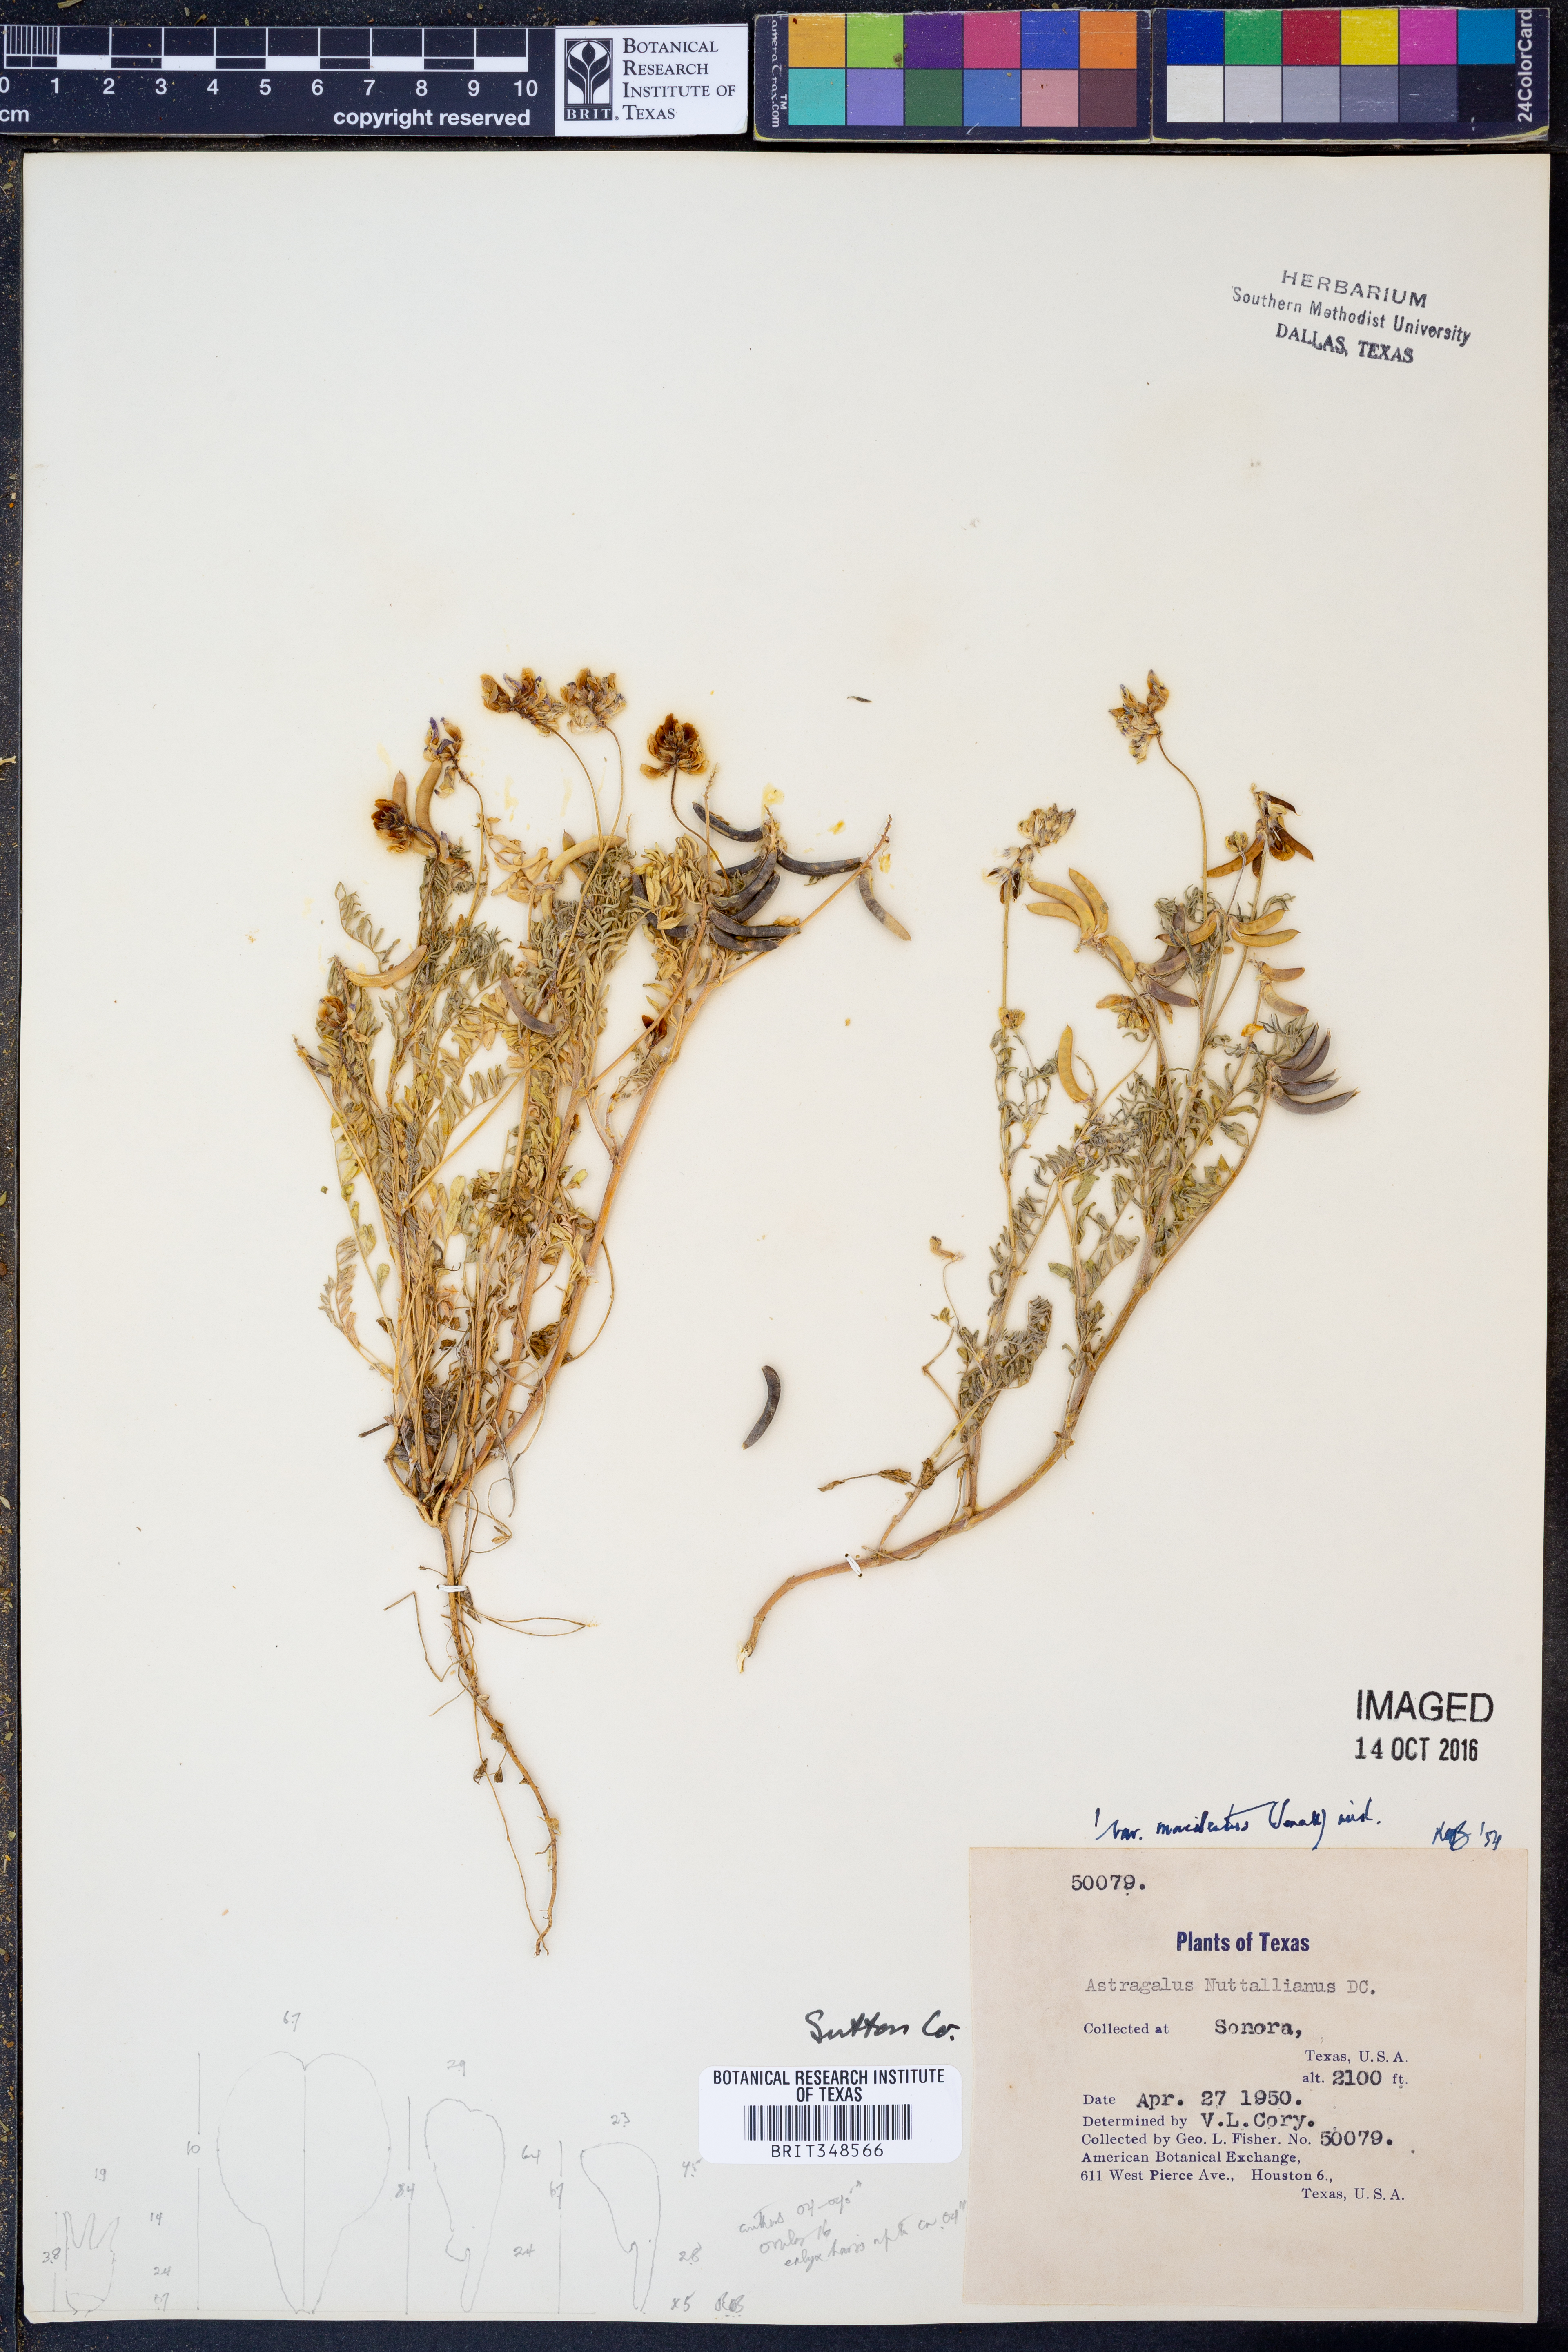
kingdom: Plantae
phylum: Tracheophyta
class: Magnoliopsida
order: Fabales
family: Fabaceae
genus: Astragalus
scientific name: Astragalus nuttallianus
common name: Smallflowered milkvetch
